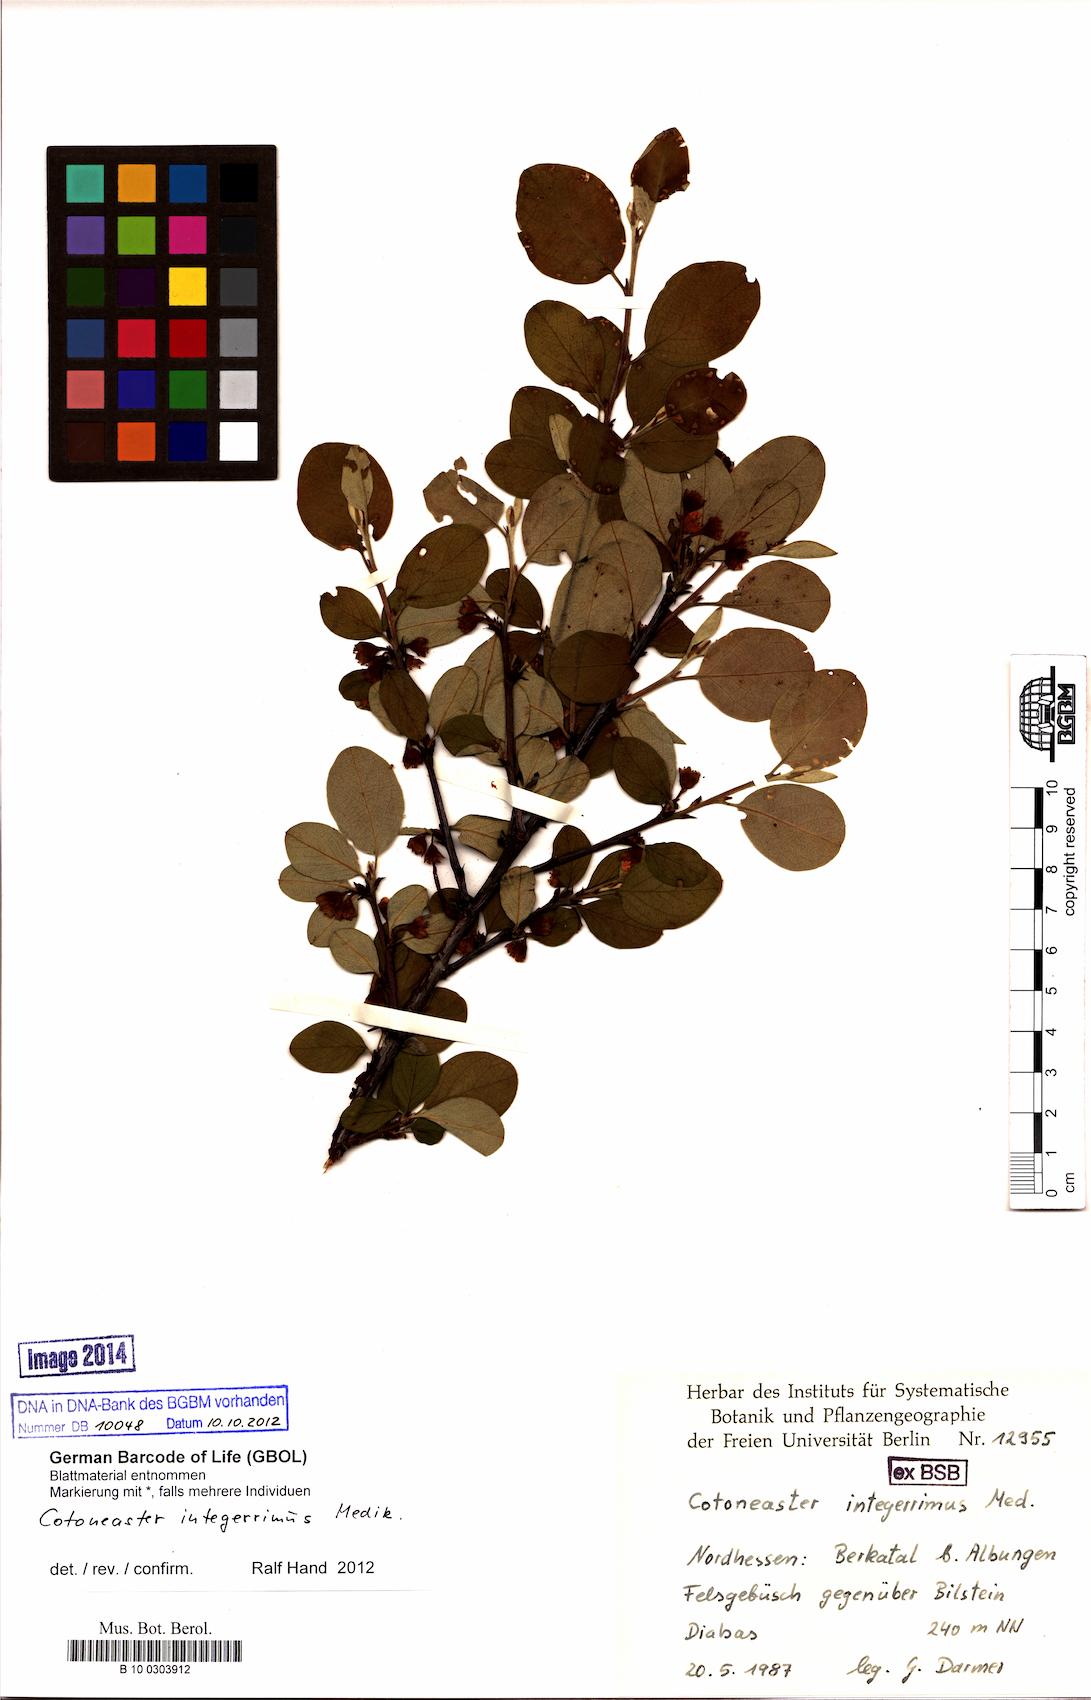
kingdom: Plantae
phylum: Tracheophyta
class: Magnoliopsida
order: Rosales
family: Rosaceae
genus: Cotoneaster
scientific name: Cotoneaster integerrimus
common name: Wild cotoneaster
